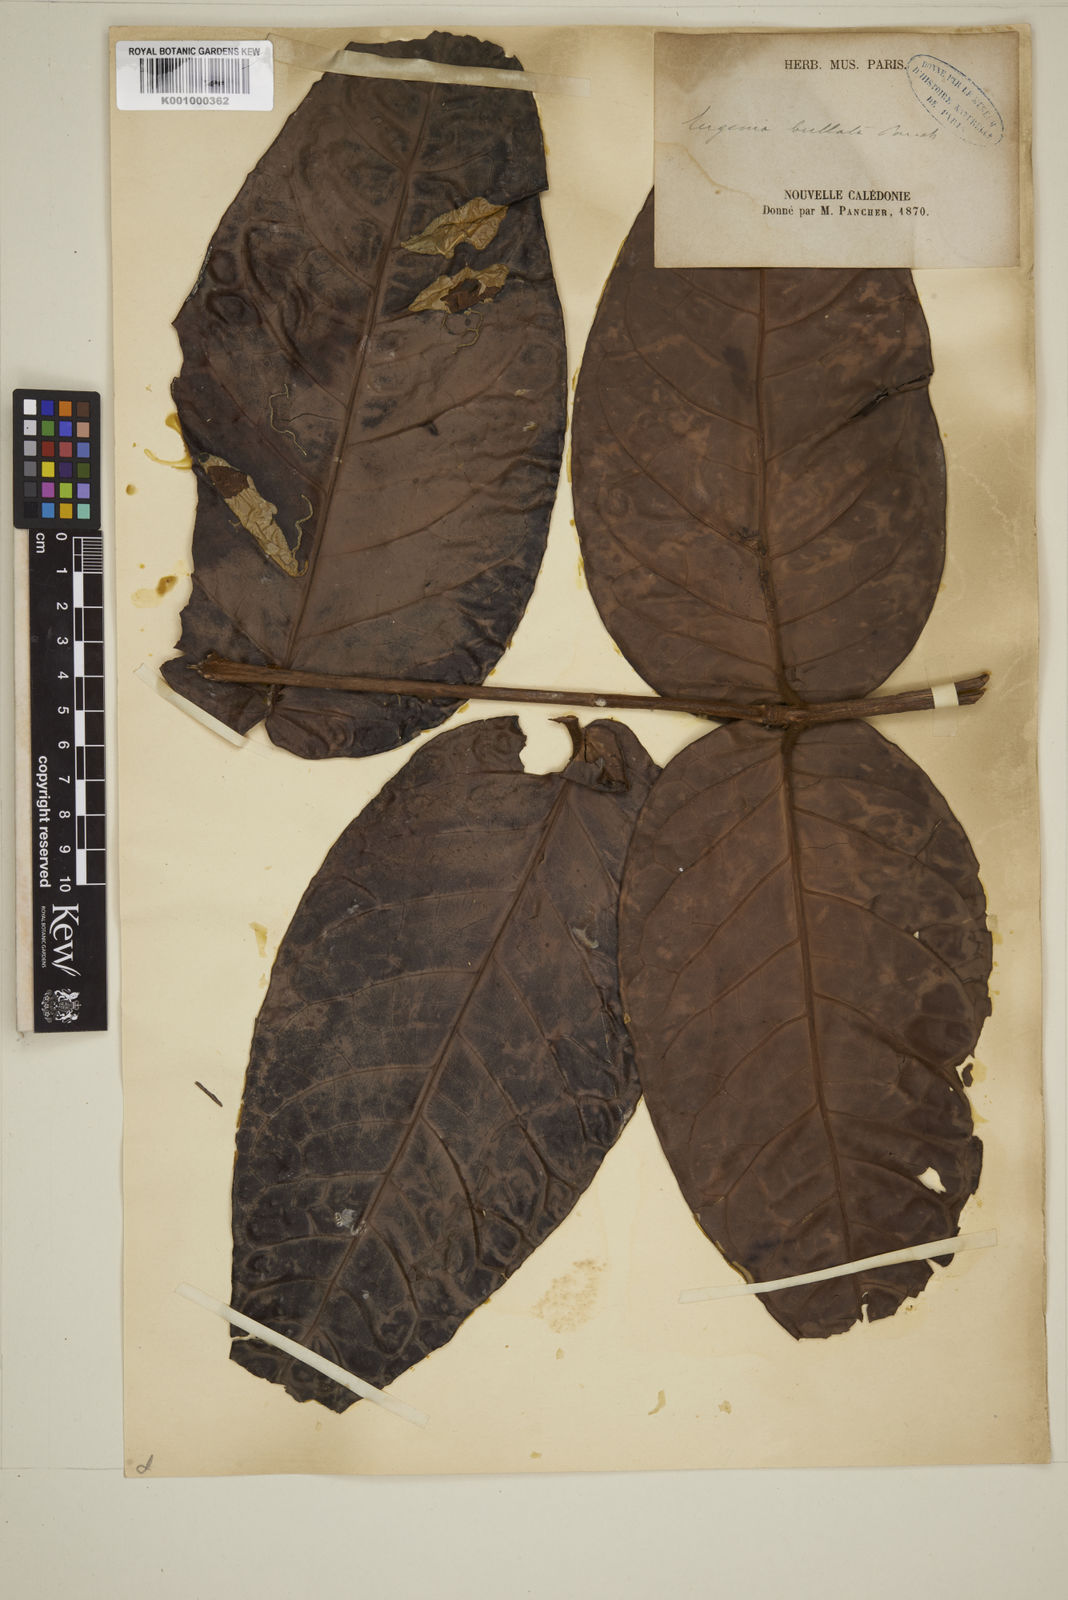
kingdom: Plantae
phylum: Tracheophyta
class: Magnoliopsida
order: Myrtales
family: Myrtaceae
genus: Eugenia
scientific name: Eugenia
